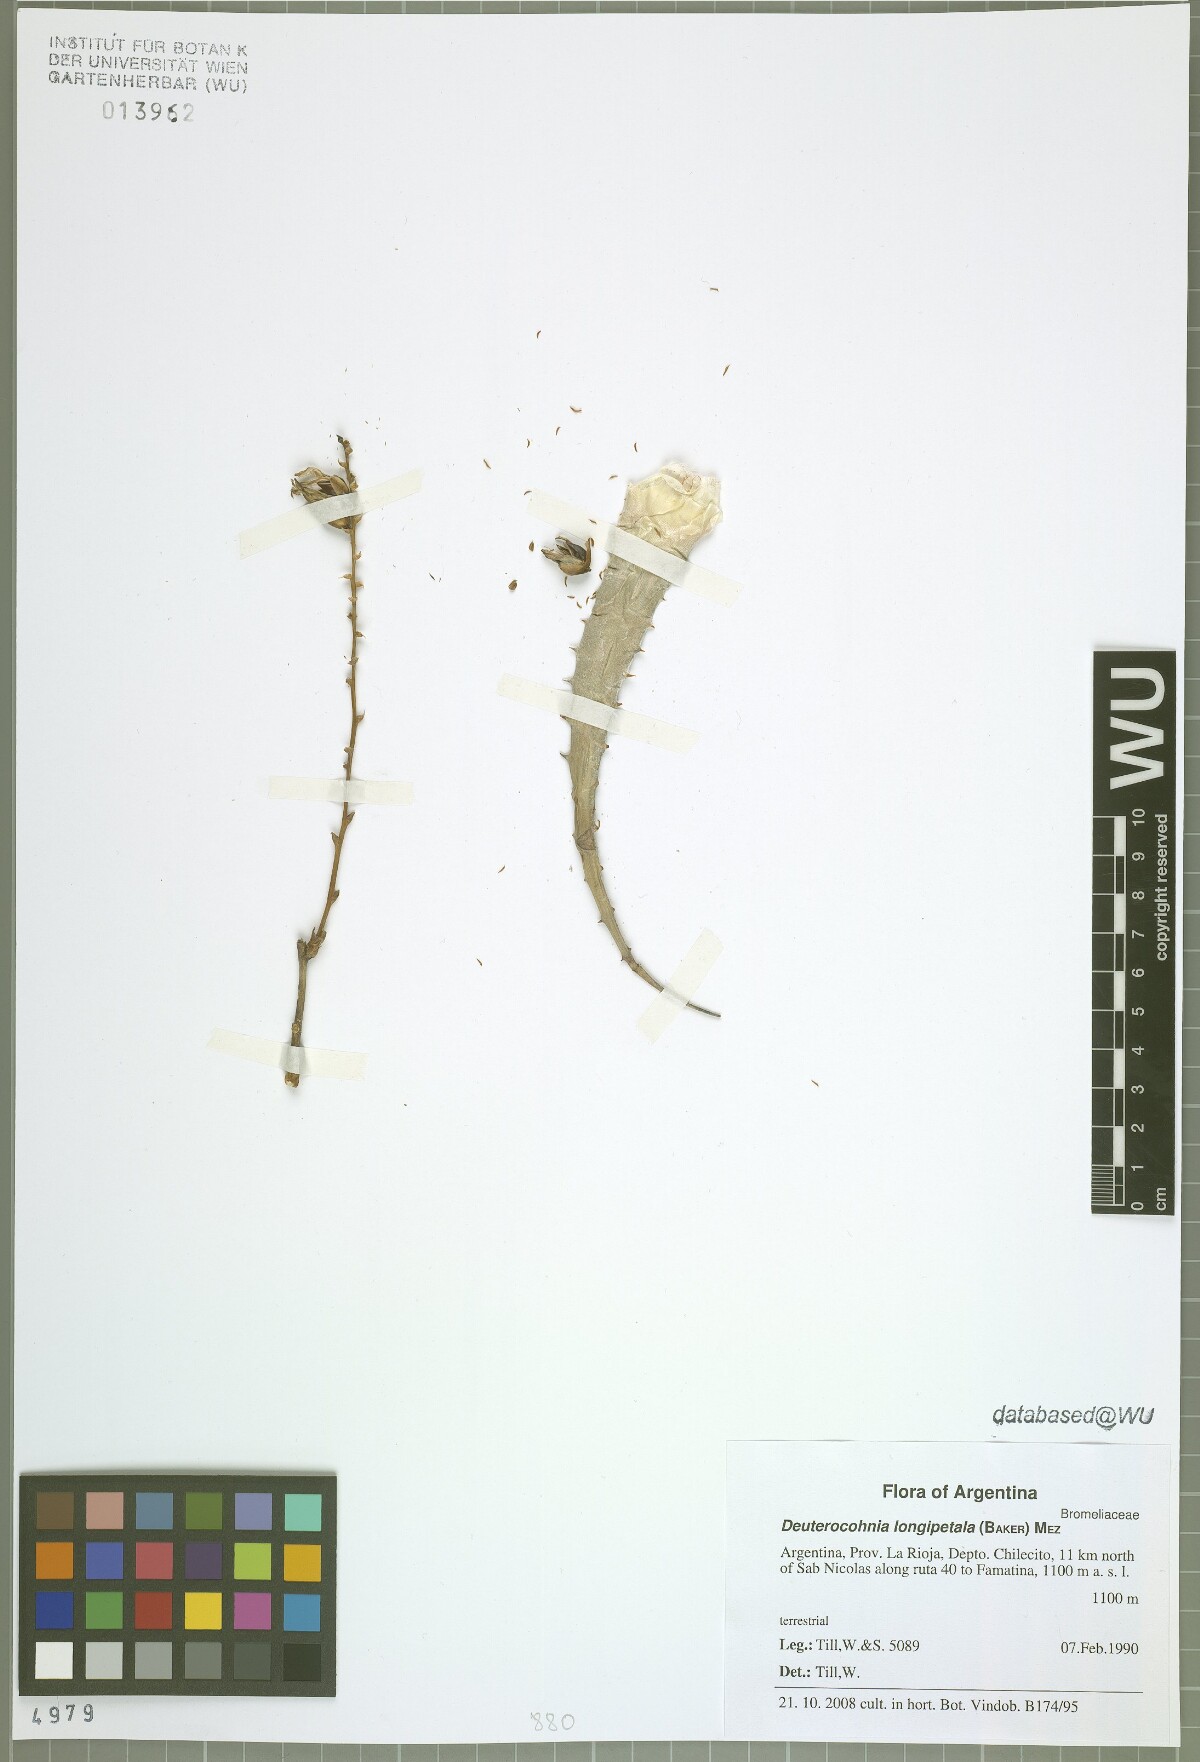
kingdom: Plantae
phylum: Tracheophyta
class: Liliopsida
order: Poales
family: Bromeliaceae
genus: Deuterocohnia
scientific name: Deuterocohnia longipetala
